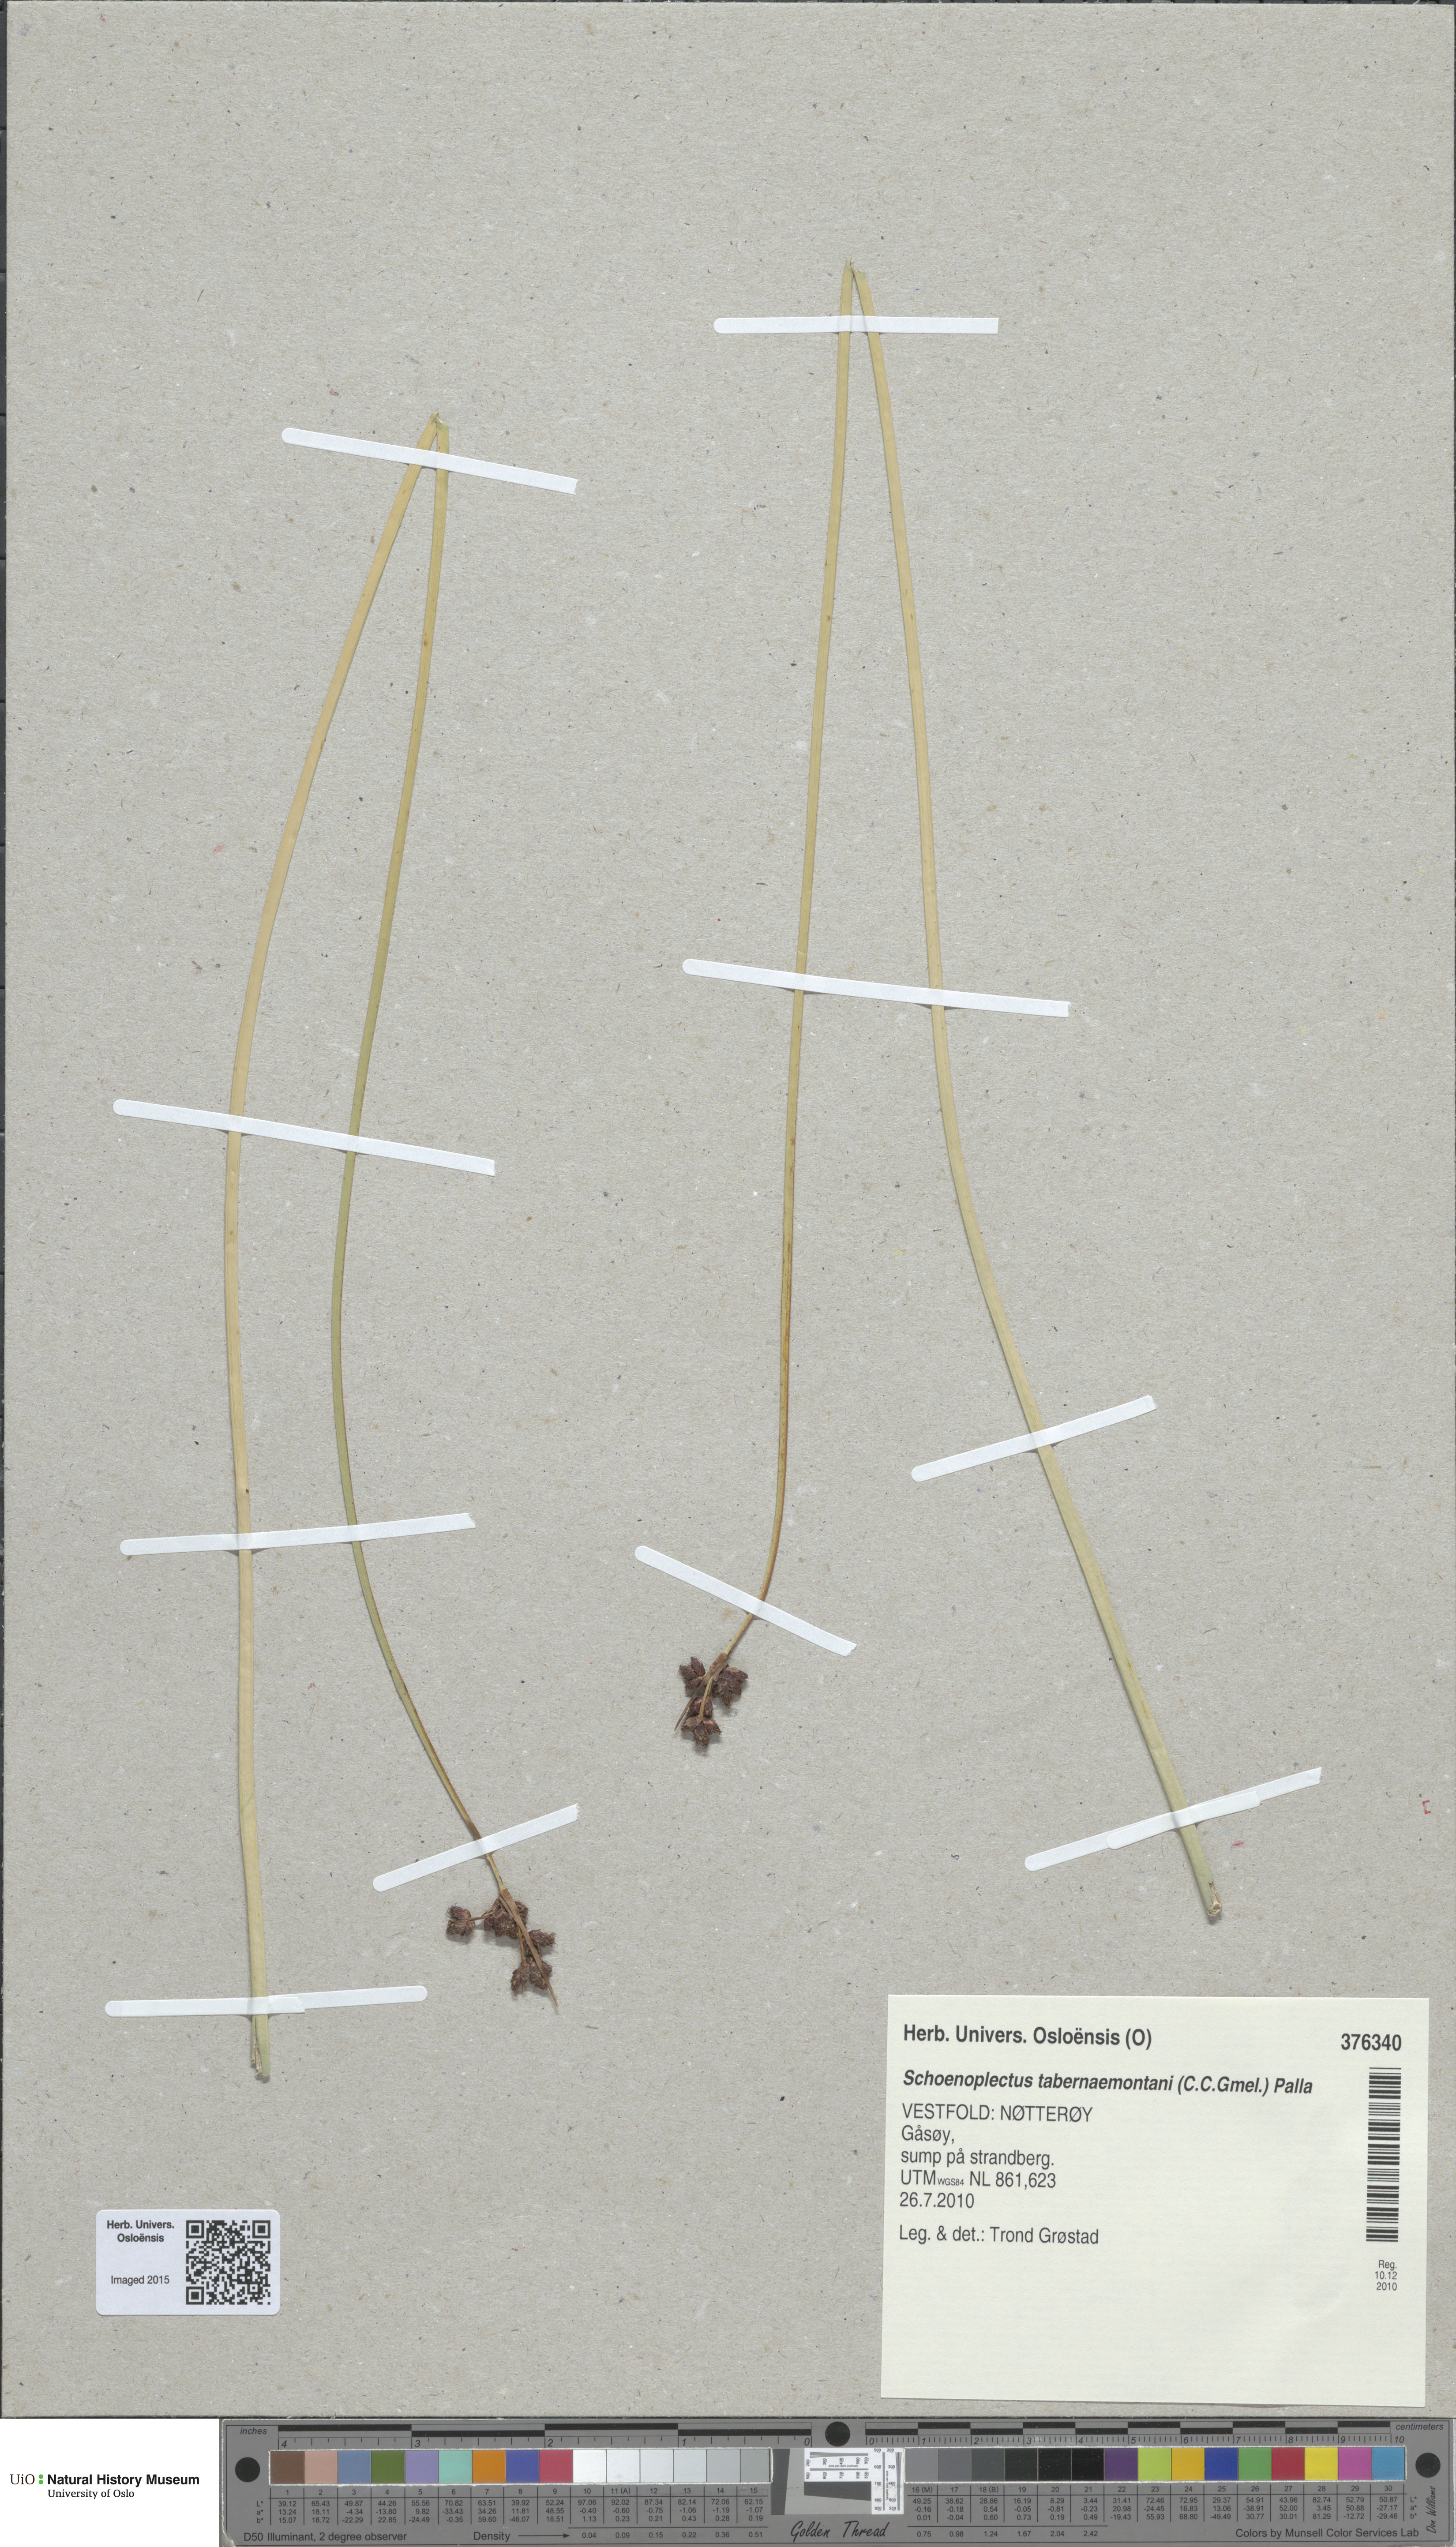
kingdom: Plantae
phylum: Tracheophyta
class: Liliopsida
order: Poales
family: Cyperaceae
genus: Schoenoplectus
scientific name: Schoenoplectus tabernaemontani
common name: Grey club-rush
